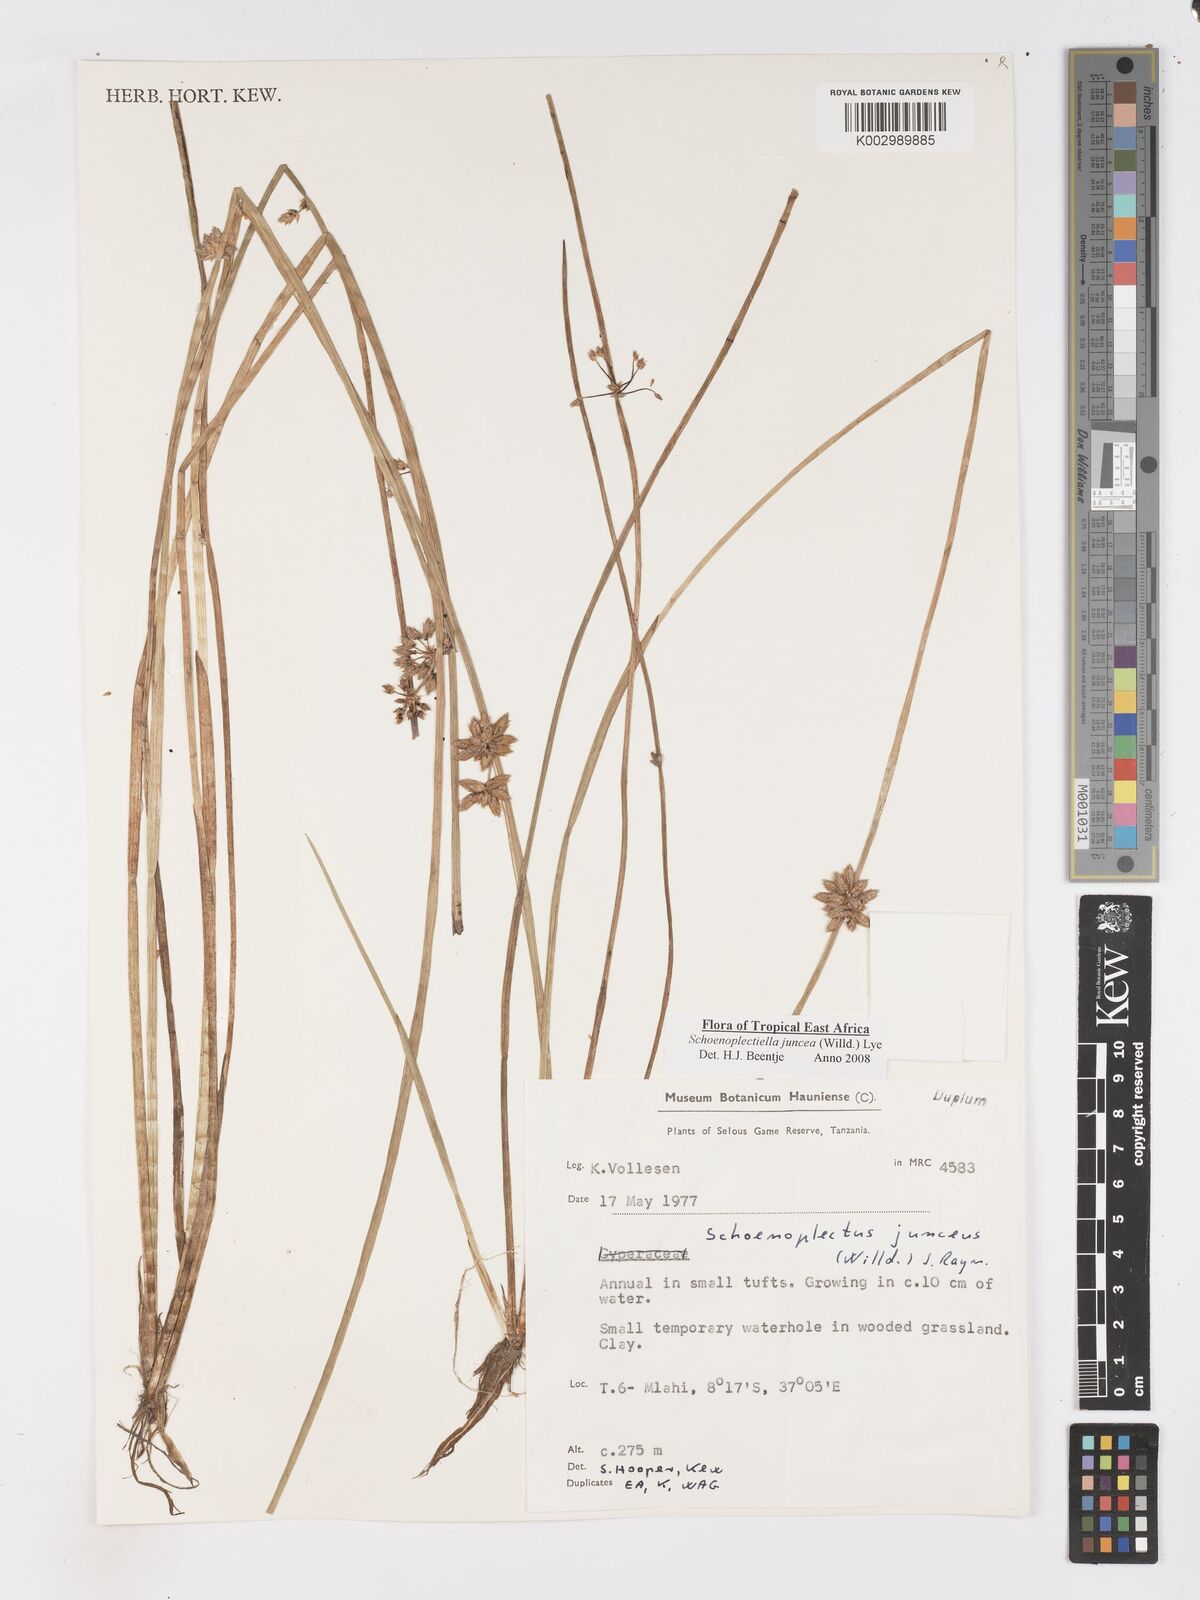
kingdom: Plantae
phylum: Tracheophyta
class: Liliopsida
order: Poales
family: Cyperaceae
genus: Schoenoplectiella
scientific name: Schoenoplectiella juncea
